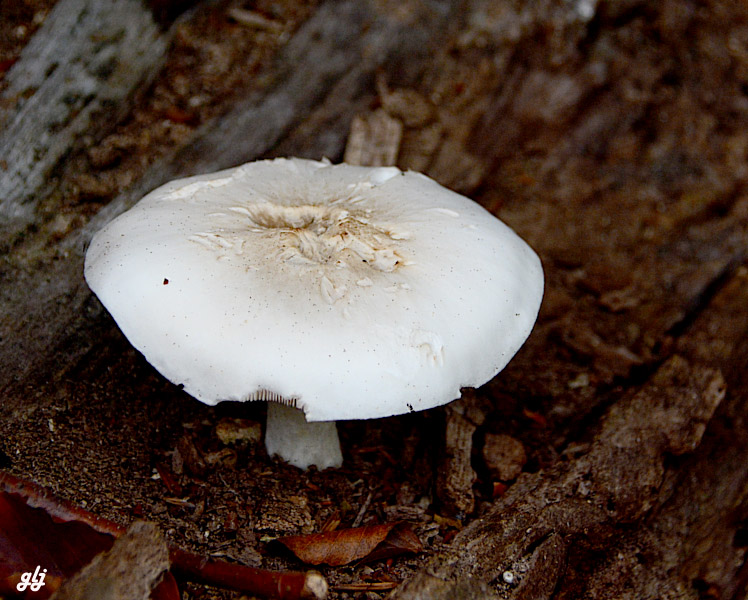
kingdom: Fungi
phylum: Basidiomycota
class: Agaricomycetes
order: Agaricales
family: Pluteaceae
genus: Pluteus
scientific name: Pluteus
